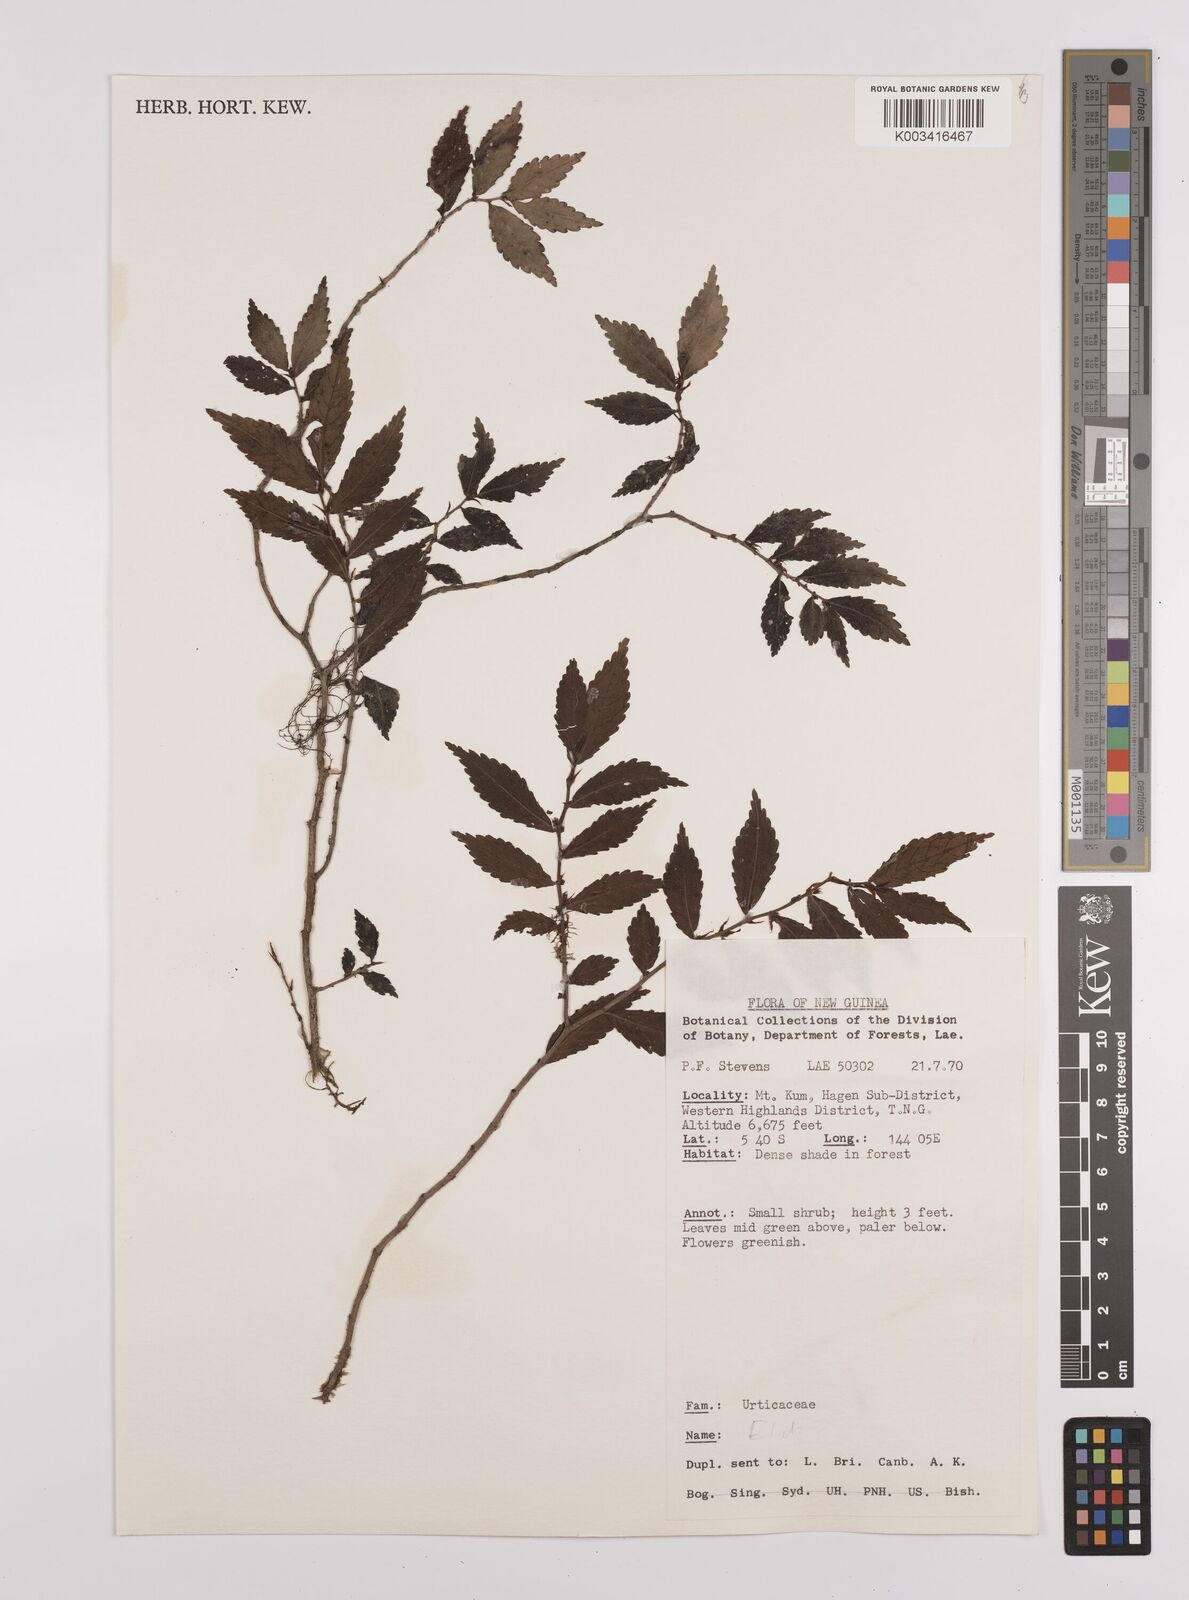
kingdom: Plantae
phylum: Tracheophyta
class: Magnoliopsida
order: Rosales
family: Urticaceae
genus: Elatostema
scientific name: Elatostema
